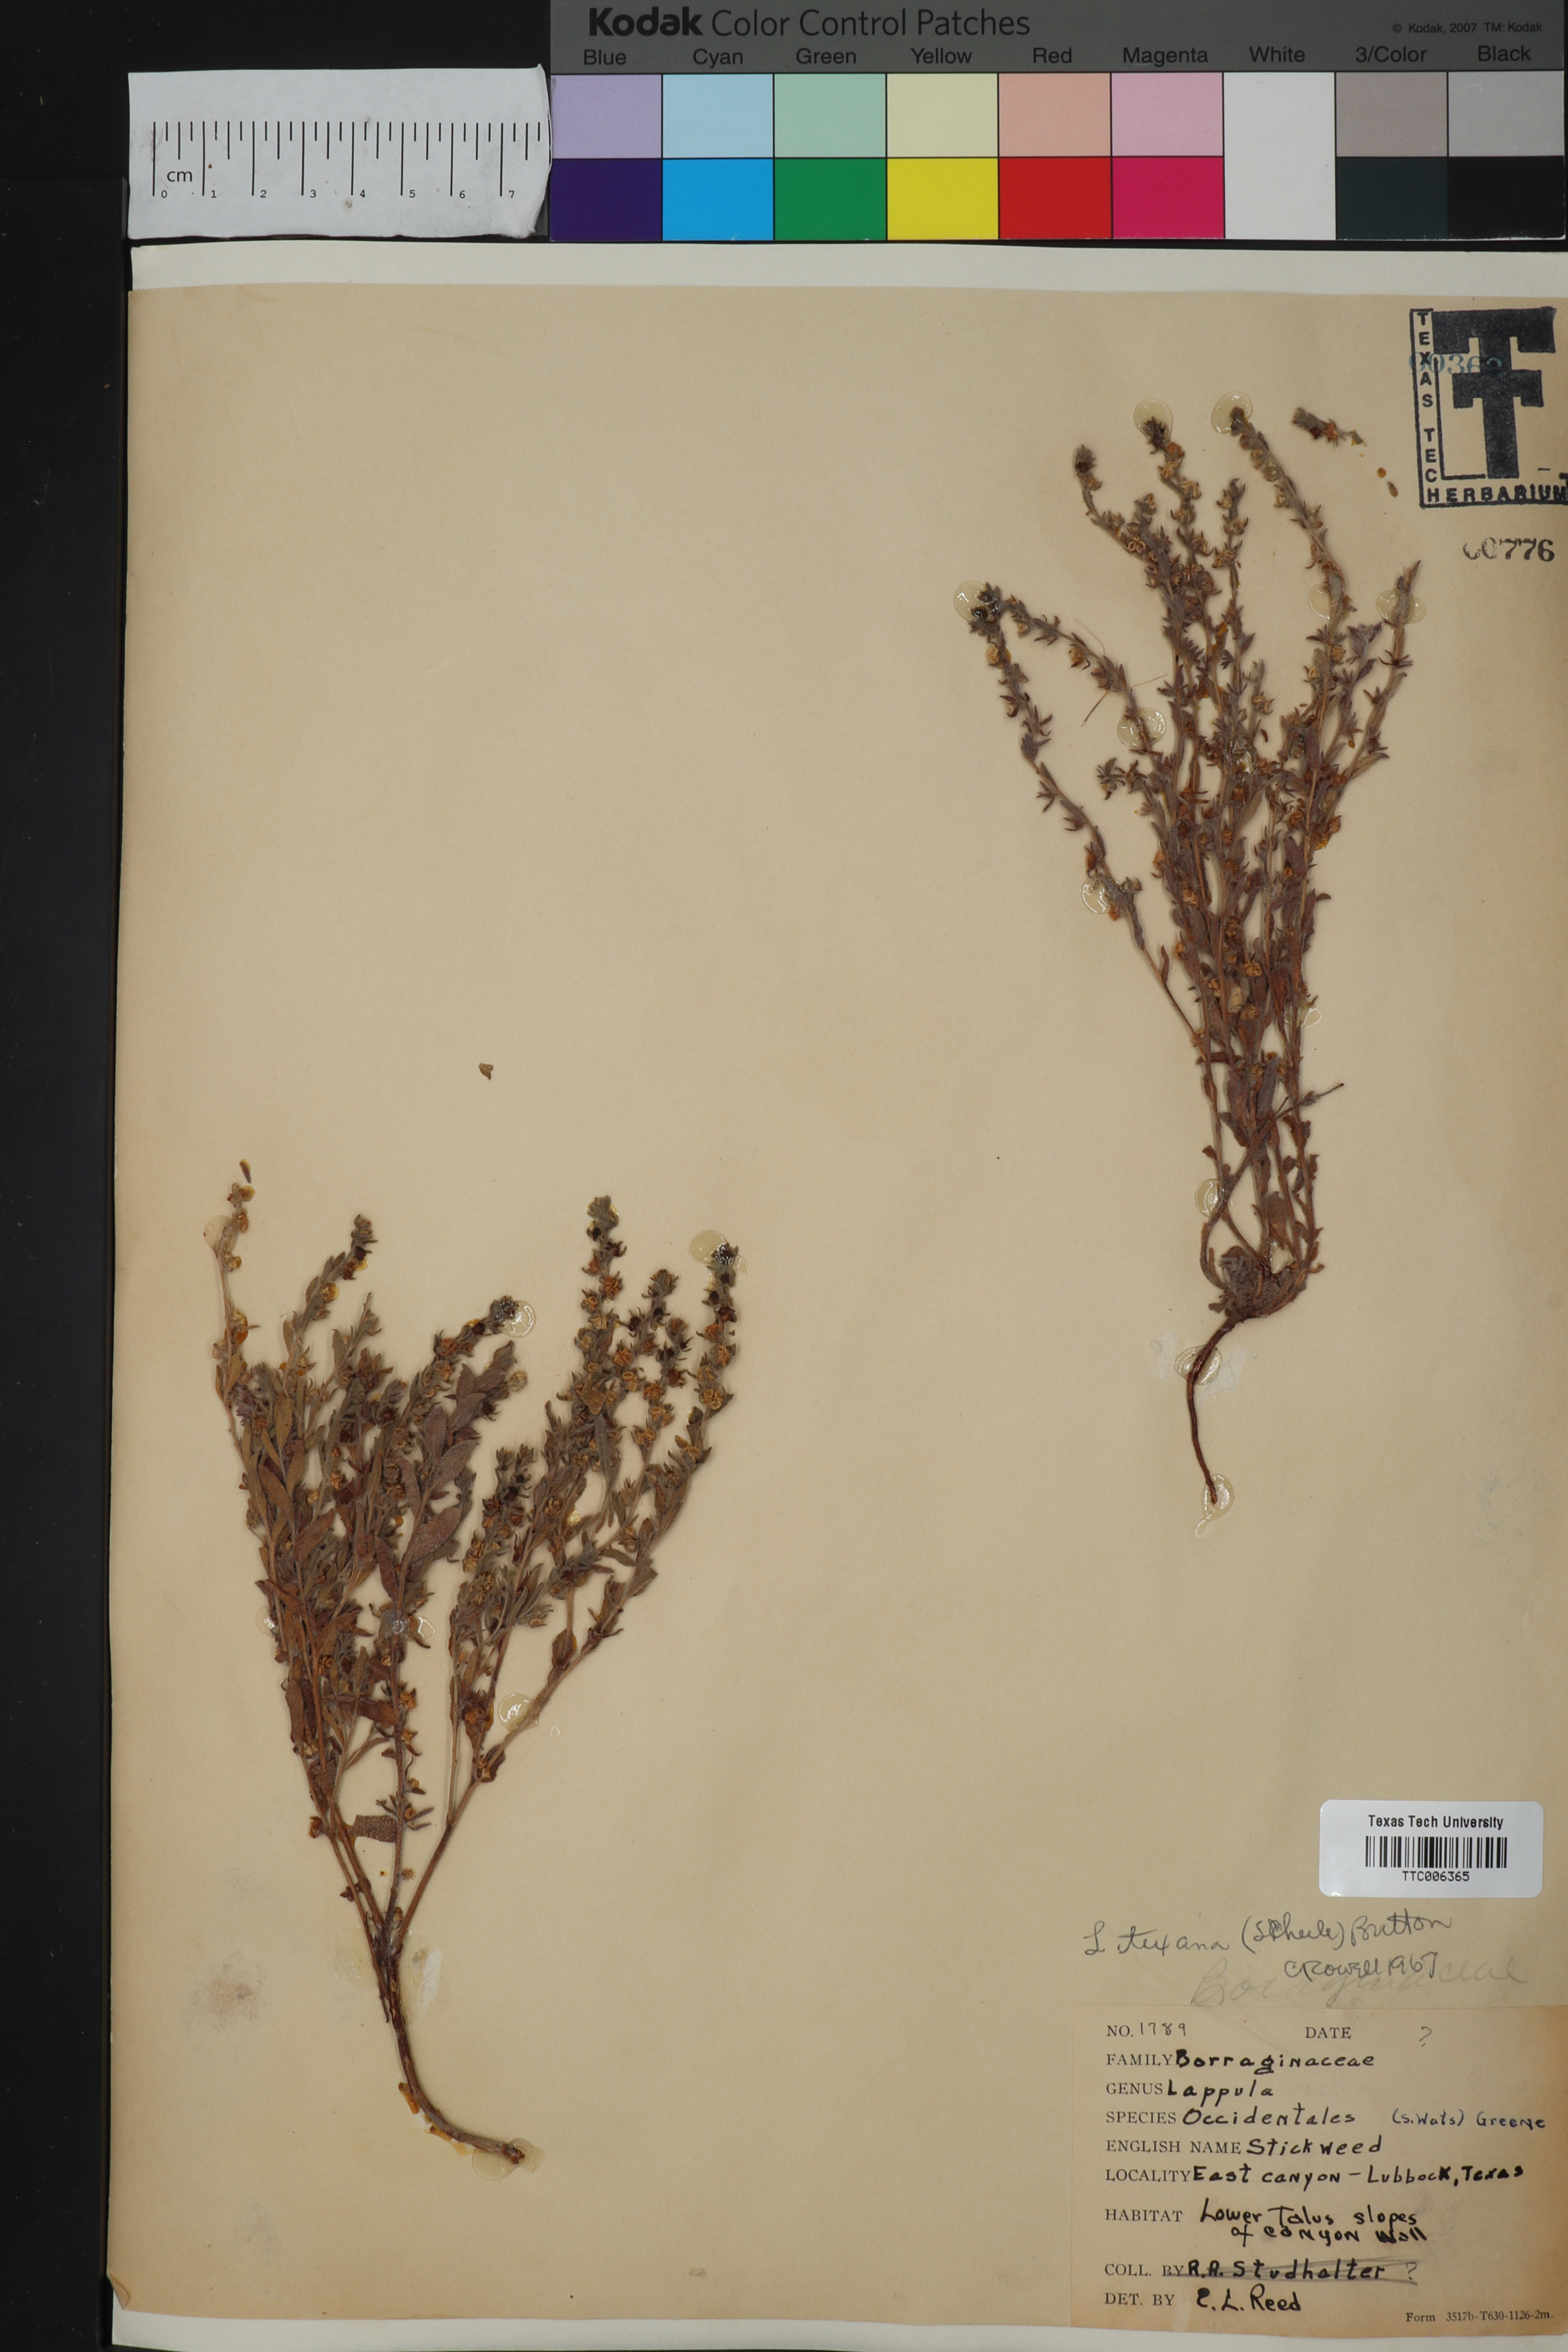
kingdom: Plantae
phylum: Tracheophyta
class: Magnoliopsida
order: Boraginales
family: Boraginaceae
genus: Lappula
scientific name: Lappula occidentalis
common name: Western stickseed
